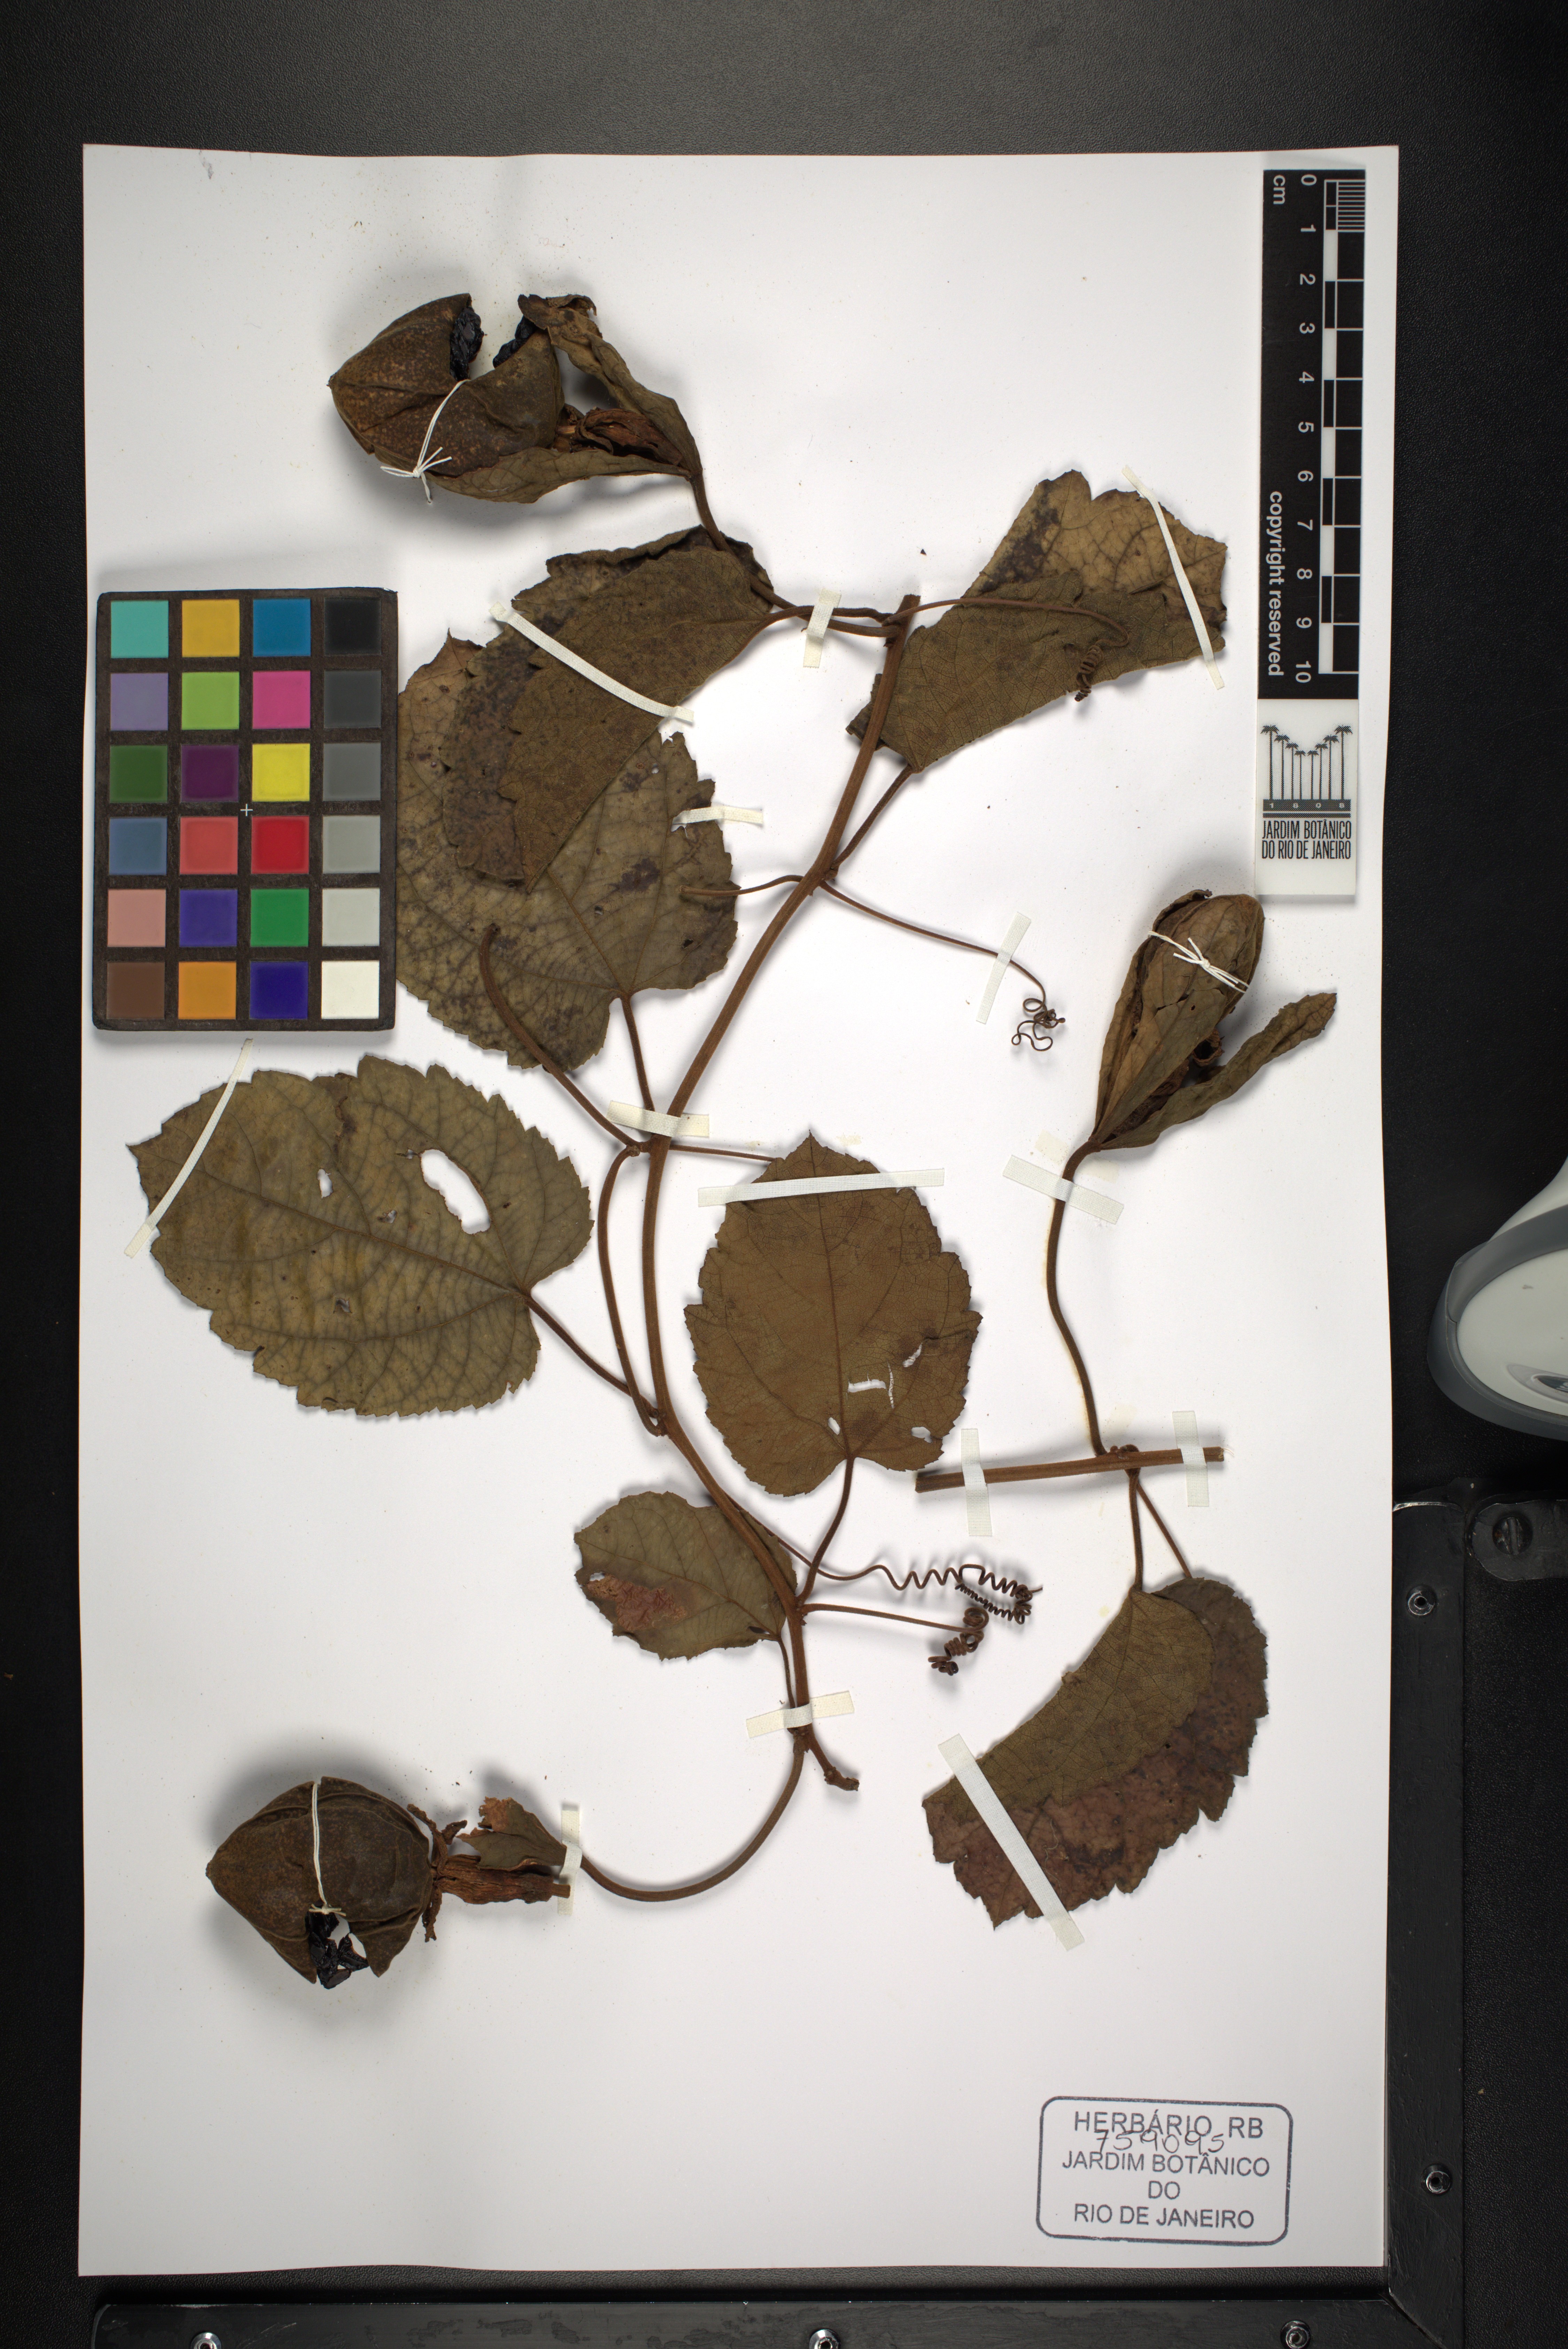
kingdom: Plantae
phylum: Tracheophyta
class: Magnoliopsida
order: Malpighiales
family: Passifloraceae
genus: Passiflora
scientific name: Passiflora araujoi
